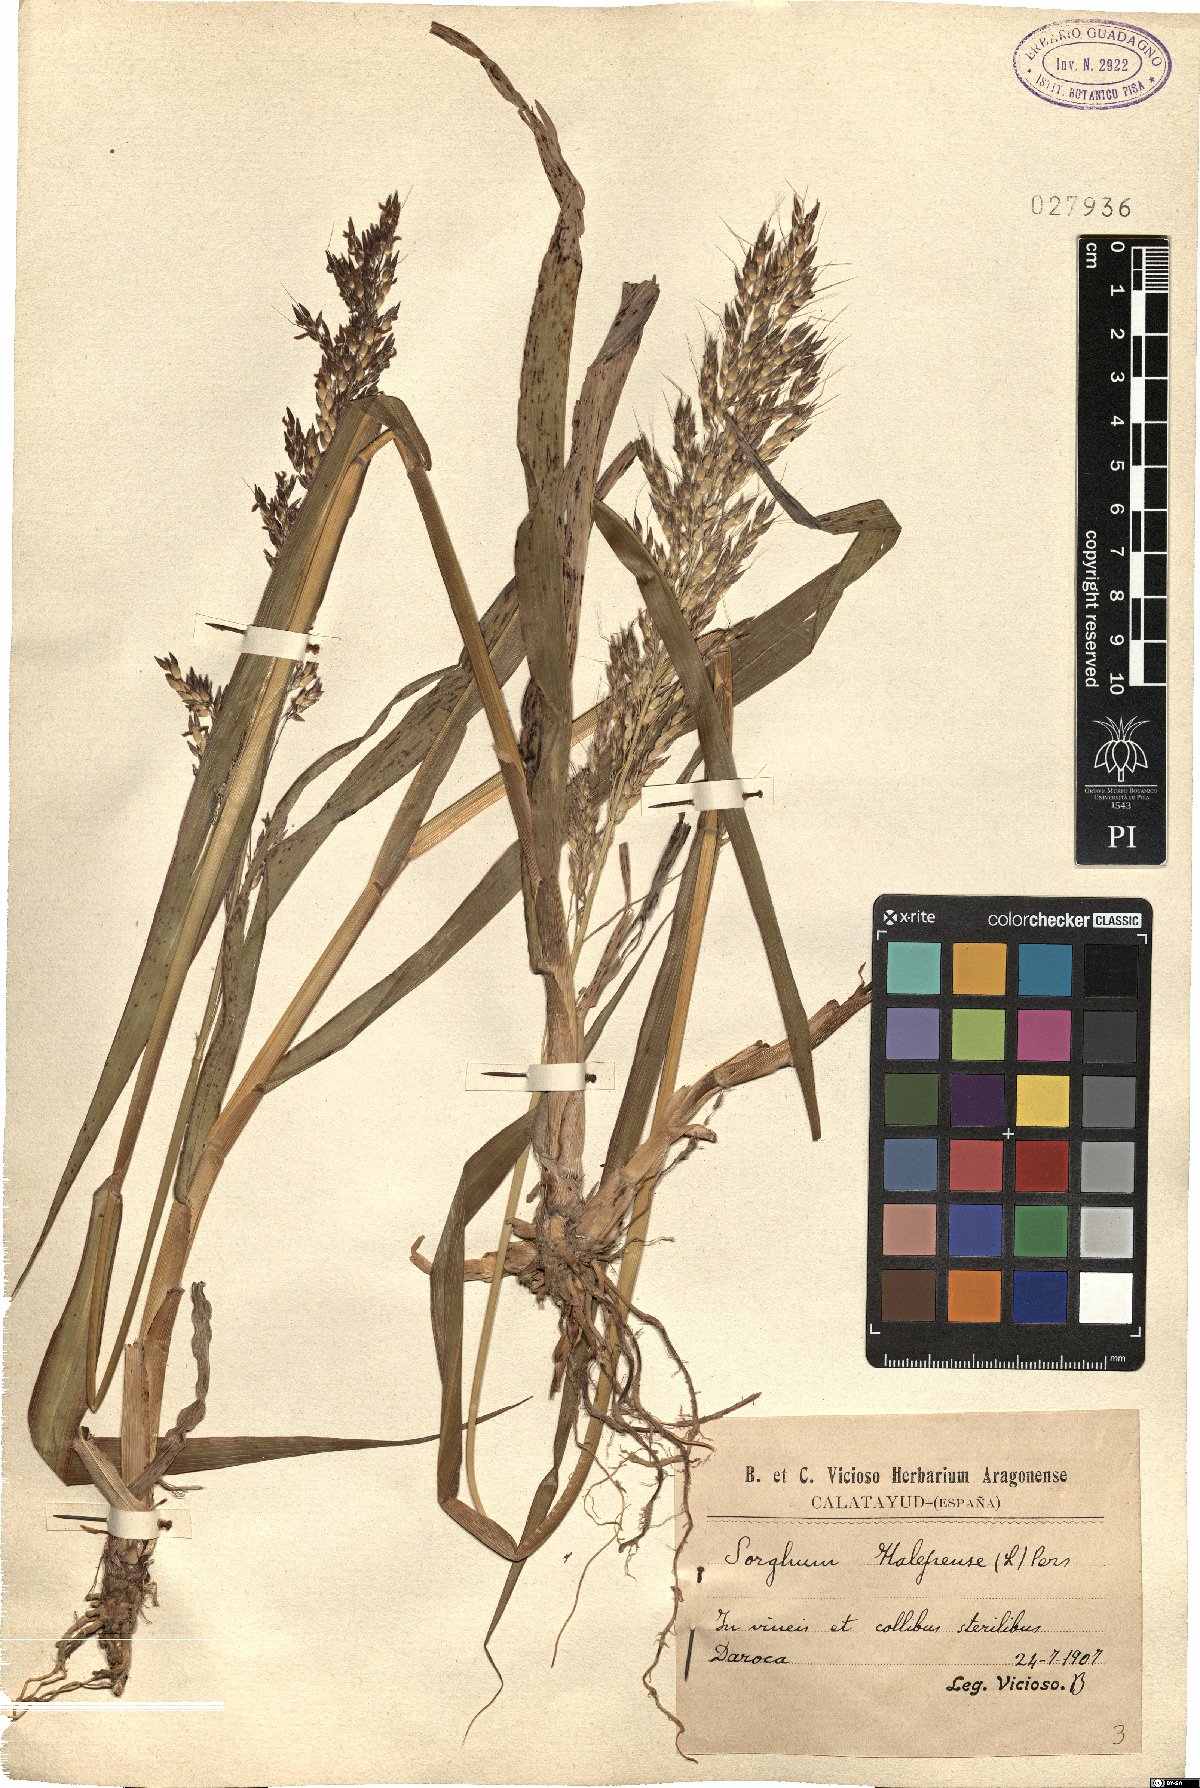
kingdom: Plantae
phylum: Tracheophyta
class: Liliopsida
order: Poales
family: Poaceae
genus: Sorghum
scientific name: Sorghum halepense
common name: Johnson-grass
